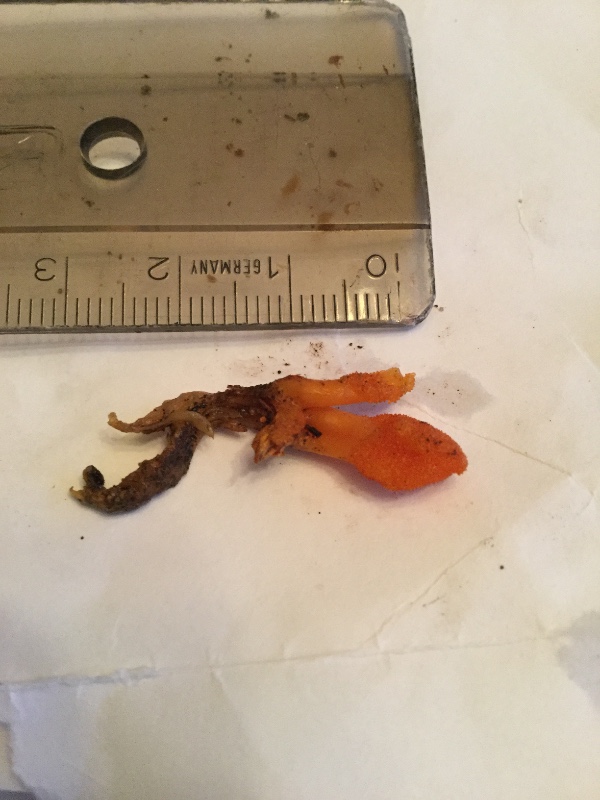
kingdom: Fungi
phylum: Ascomycota
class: Sordariomycetes
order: Hypocreales
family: Cordycipitaceae
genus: Cordyceps
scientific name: Cordyceps militaris
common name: puppe-snyltekølle
